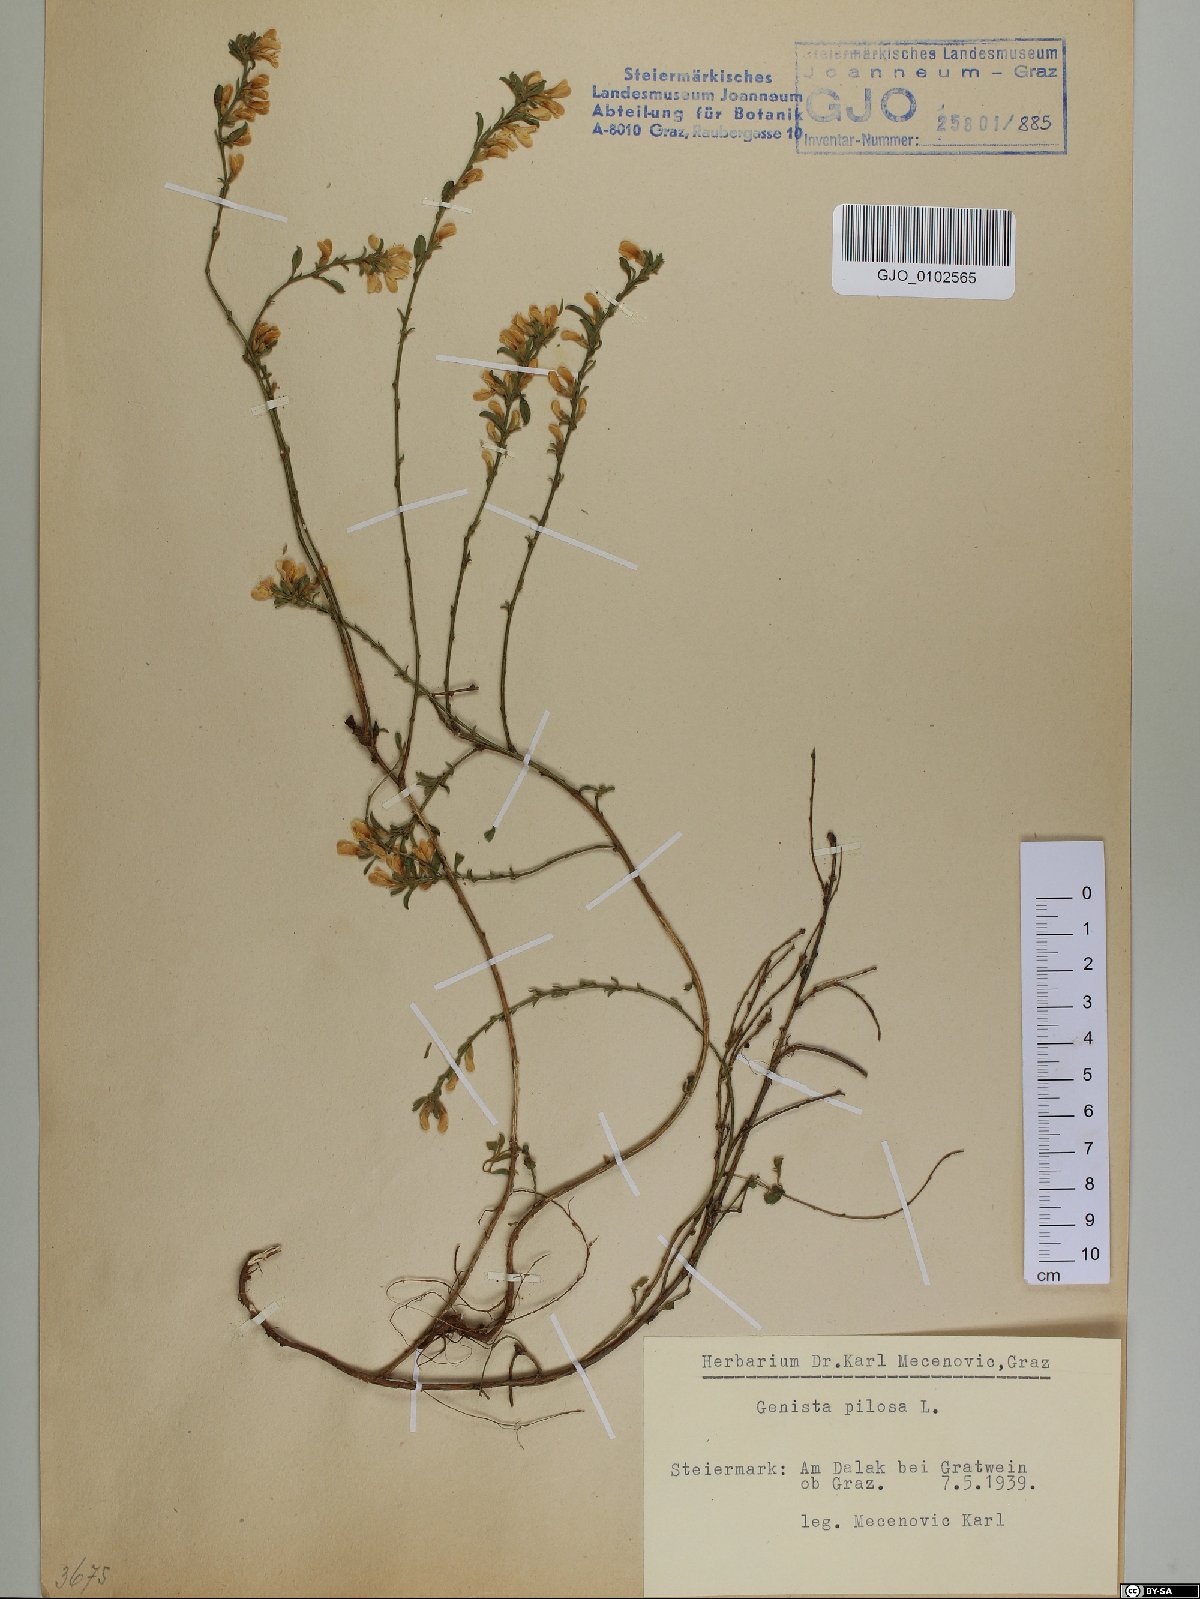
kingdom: Plantae
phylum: Tracheophyta
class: Magnoliopsida
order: Fabales
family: Fabaceae
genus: Genista
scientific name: Genista pilosa
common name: Hairy greenweed
